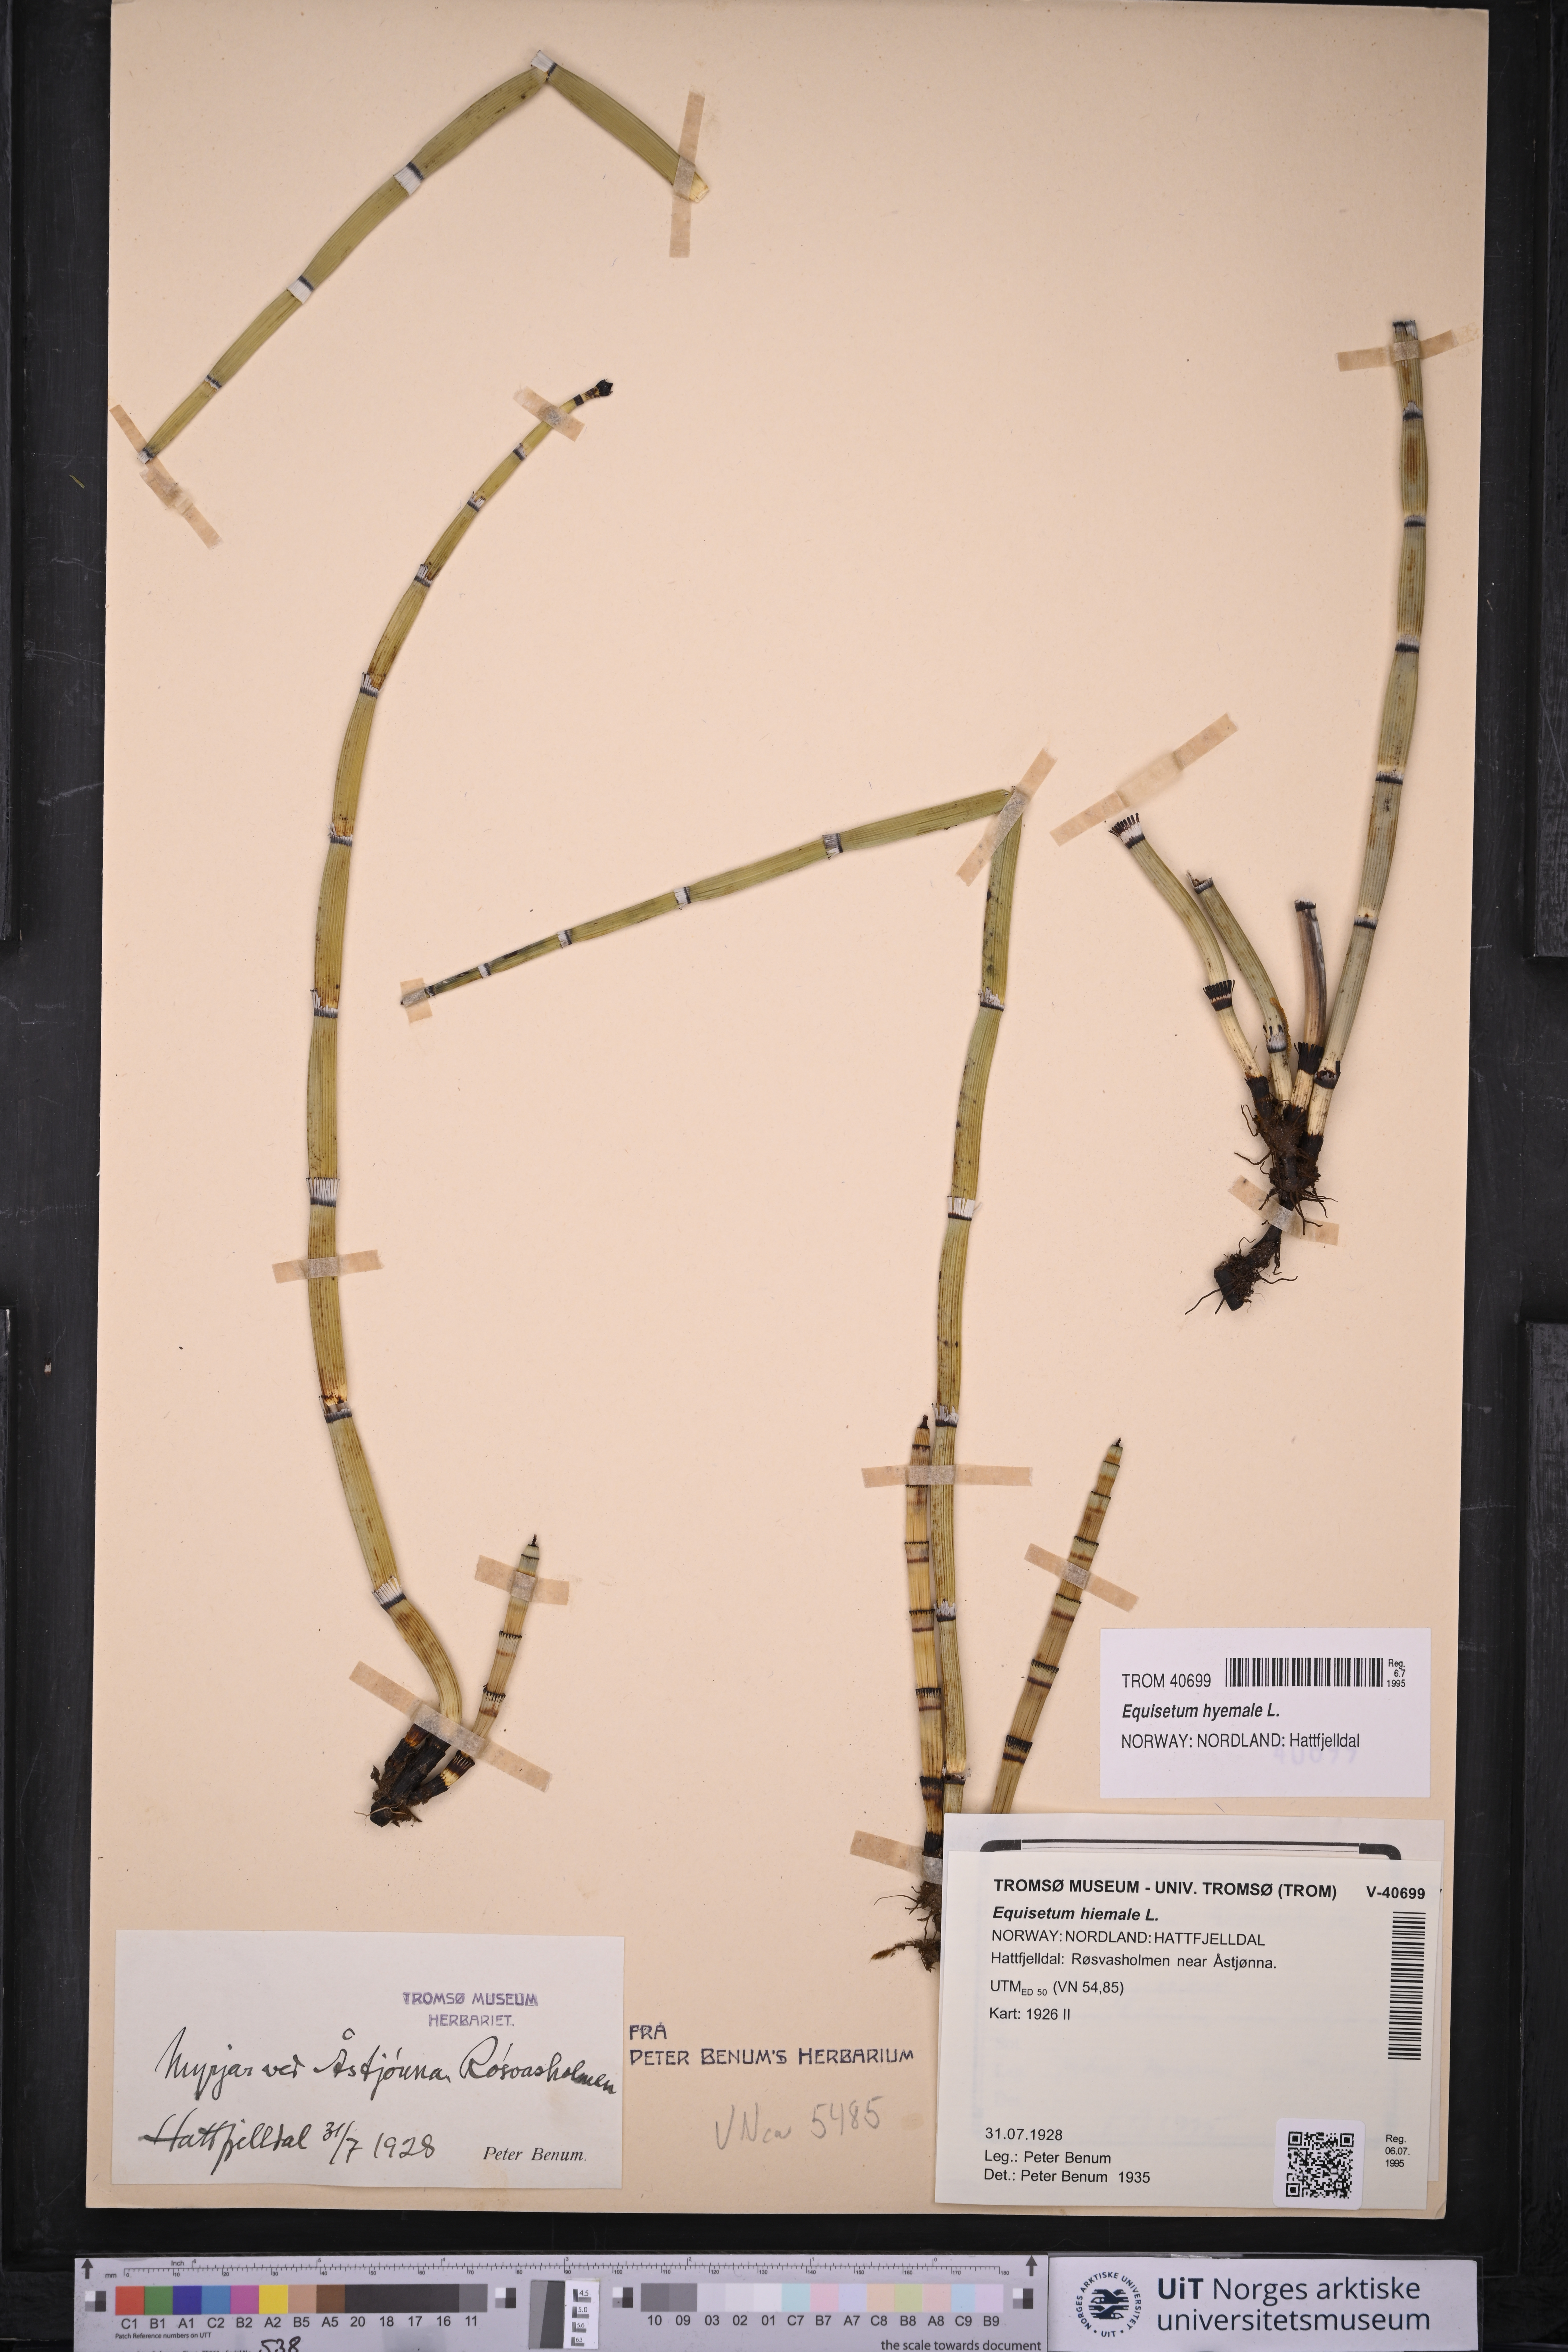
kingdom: Plantae
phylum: Tracheophyta
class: Polypodiopsida
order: Equisetales
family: Equisetaceae
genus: Equisetum
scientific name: Equisetum hyemale
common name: Rough horsetail
